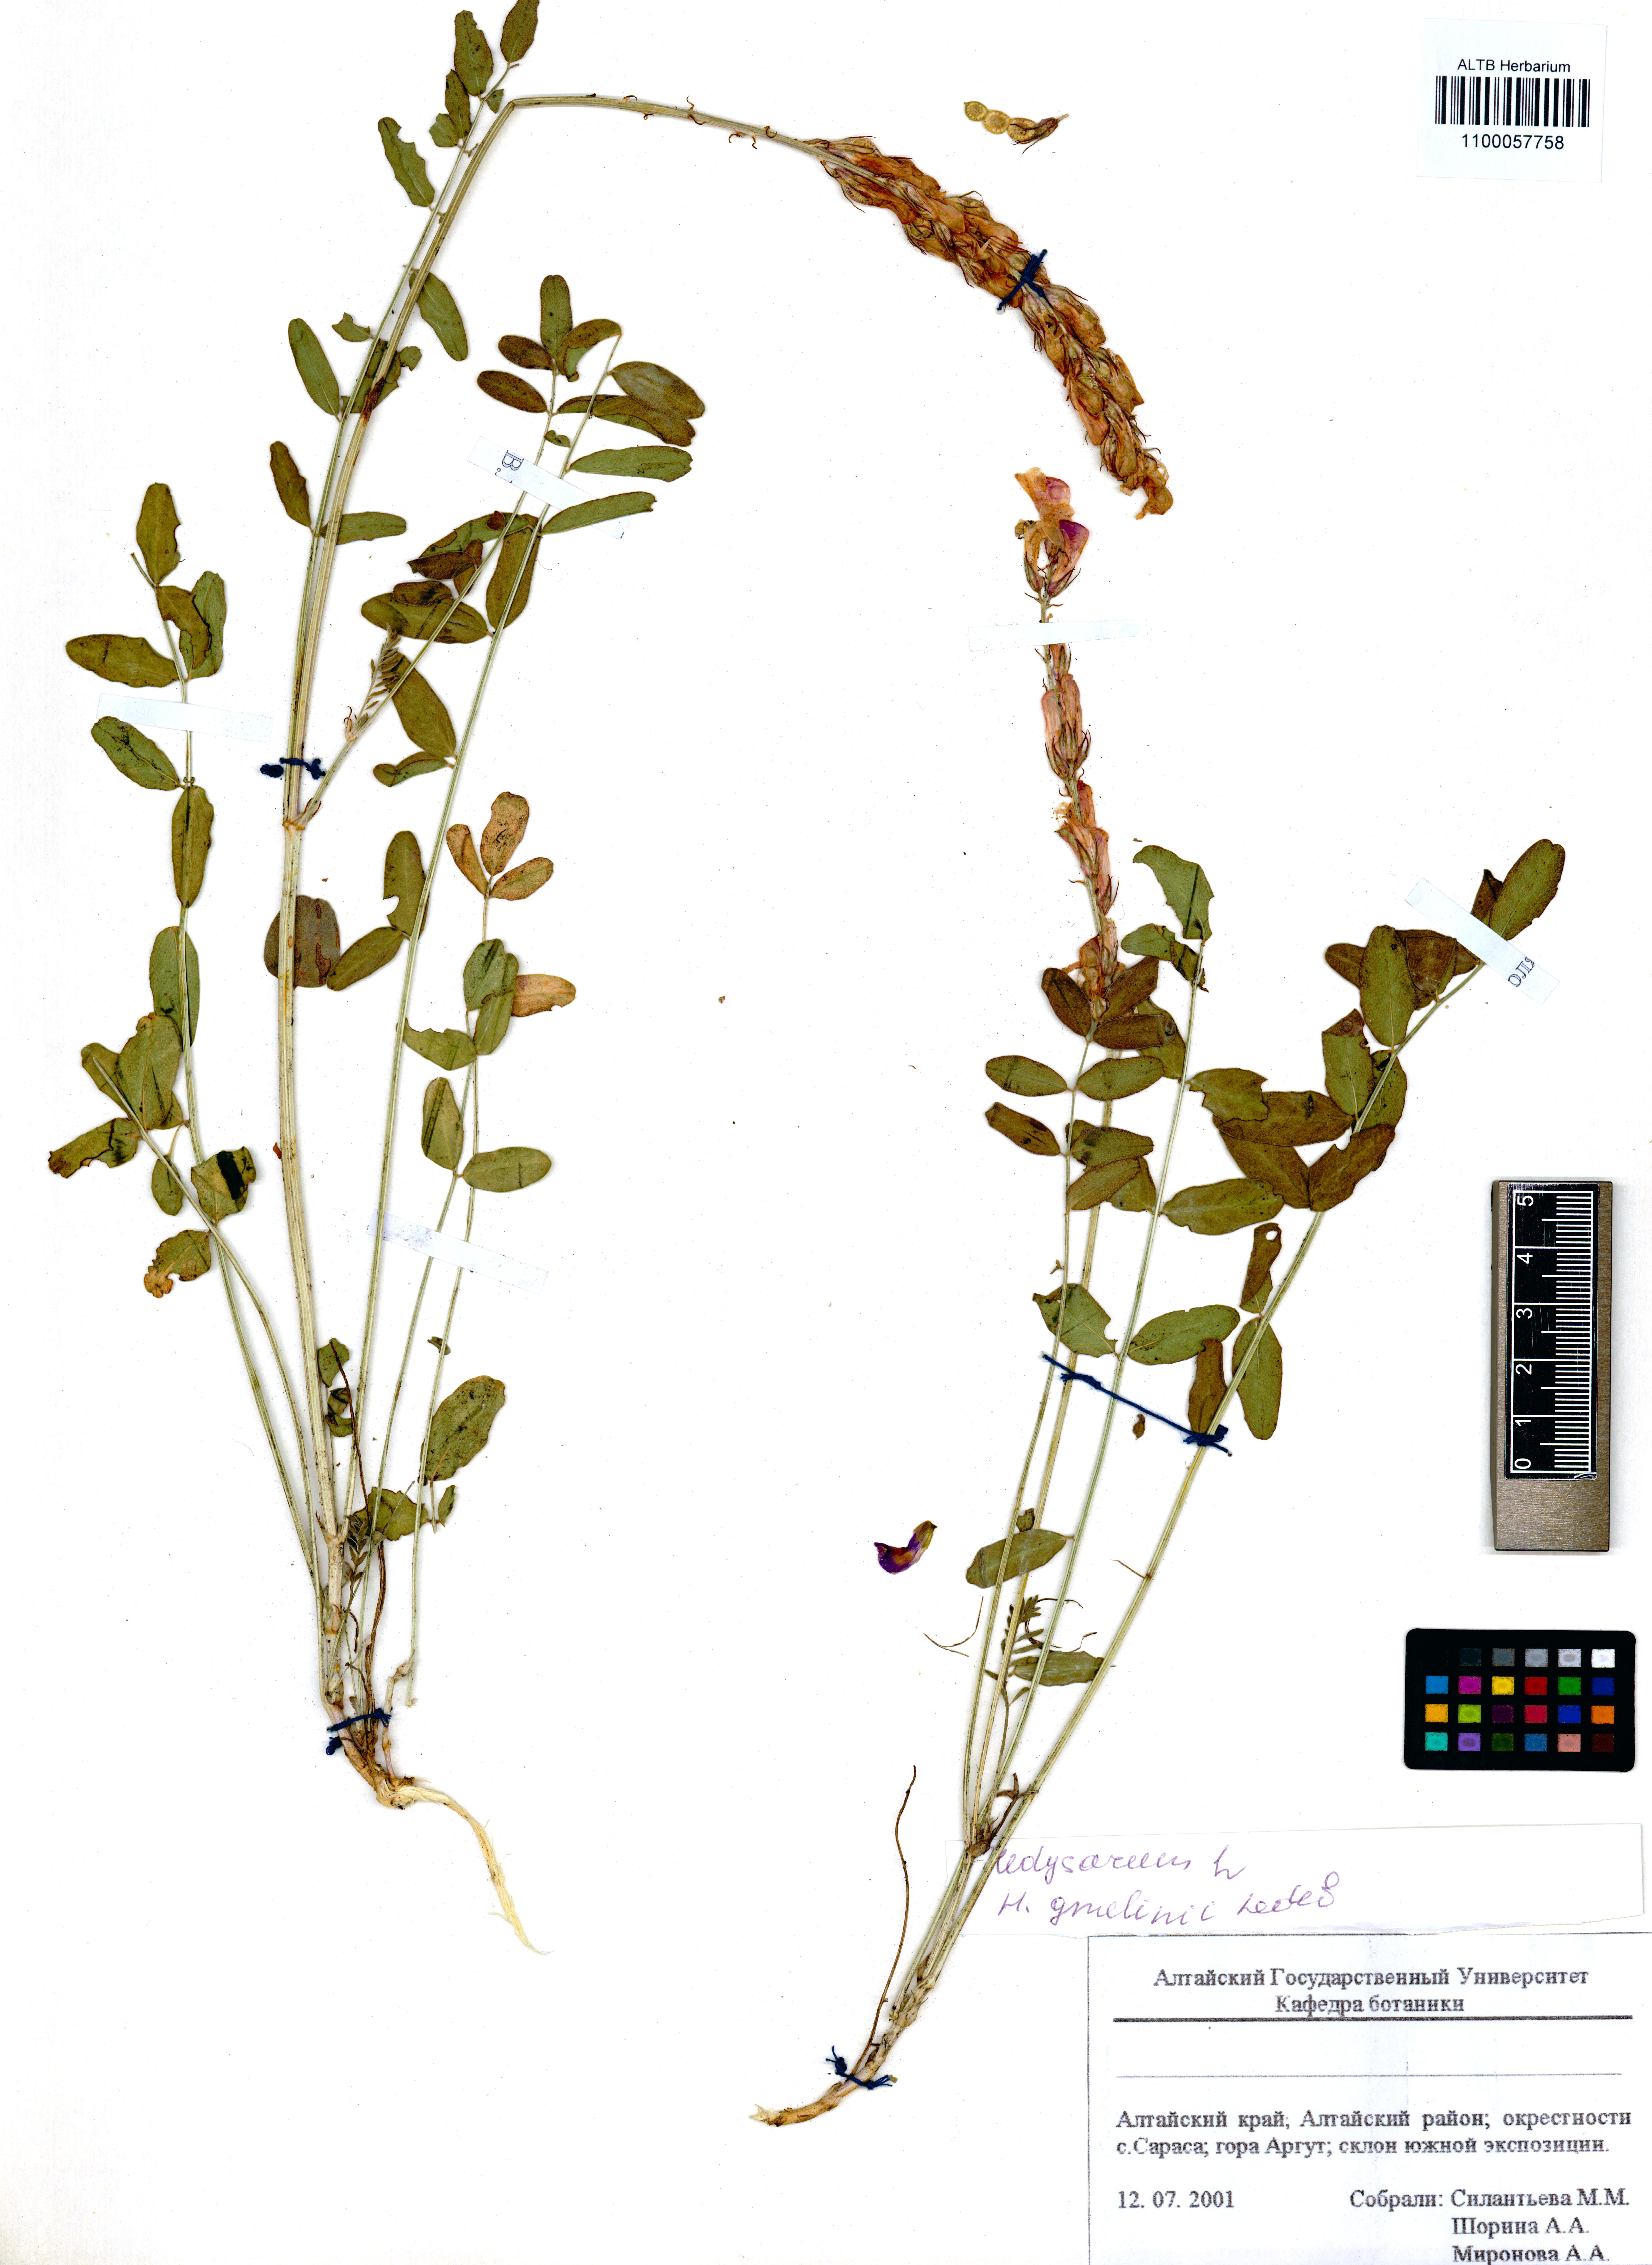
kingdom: Plantae
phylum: Tracheophyta
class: Magnoliopsida
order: Fabales
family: Fabaceae
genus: Hedysarum
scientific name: Hedysarum gmelinii
